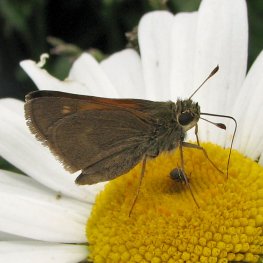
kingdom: Animalia
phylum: Arthropoda
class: Insecta
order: Lepidoptera
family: Hesperiidae
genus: Polites
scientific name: Polites themistocles
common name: Tawny-edged Skipper
